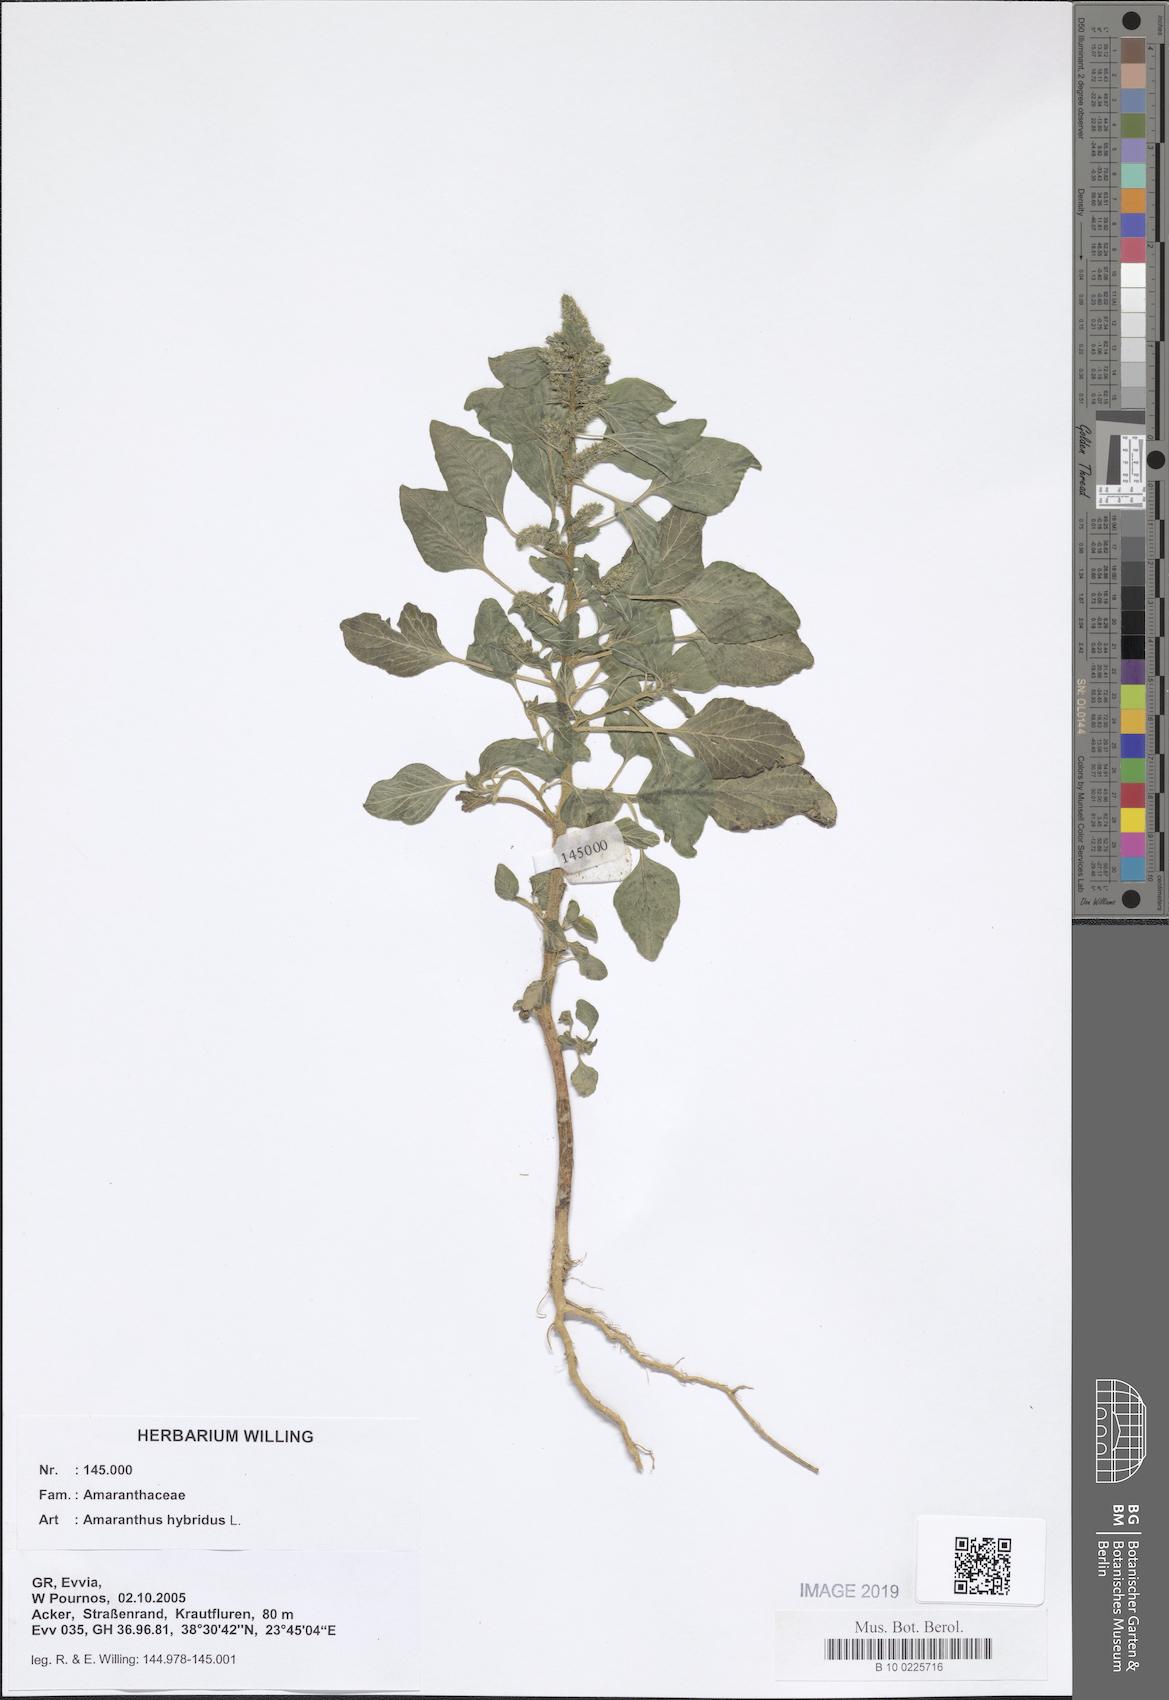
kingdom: Plantae
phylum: Tracheophyta
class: Magnoliopsida
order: Caryophyllales
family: Amaranthaceae
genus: Amaranthus
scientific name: Amaranthus hybridus
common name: Green amaranth
